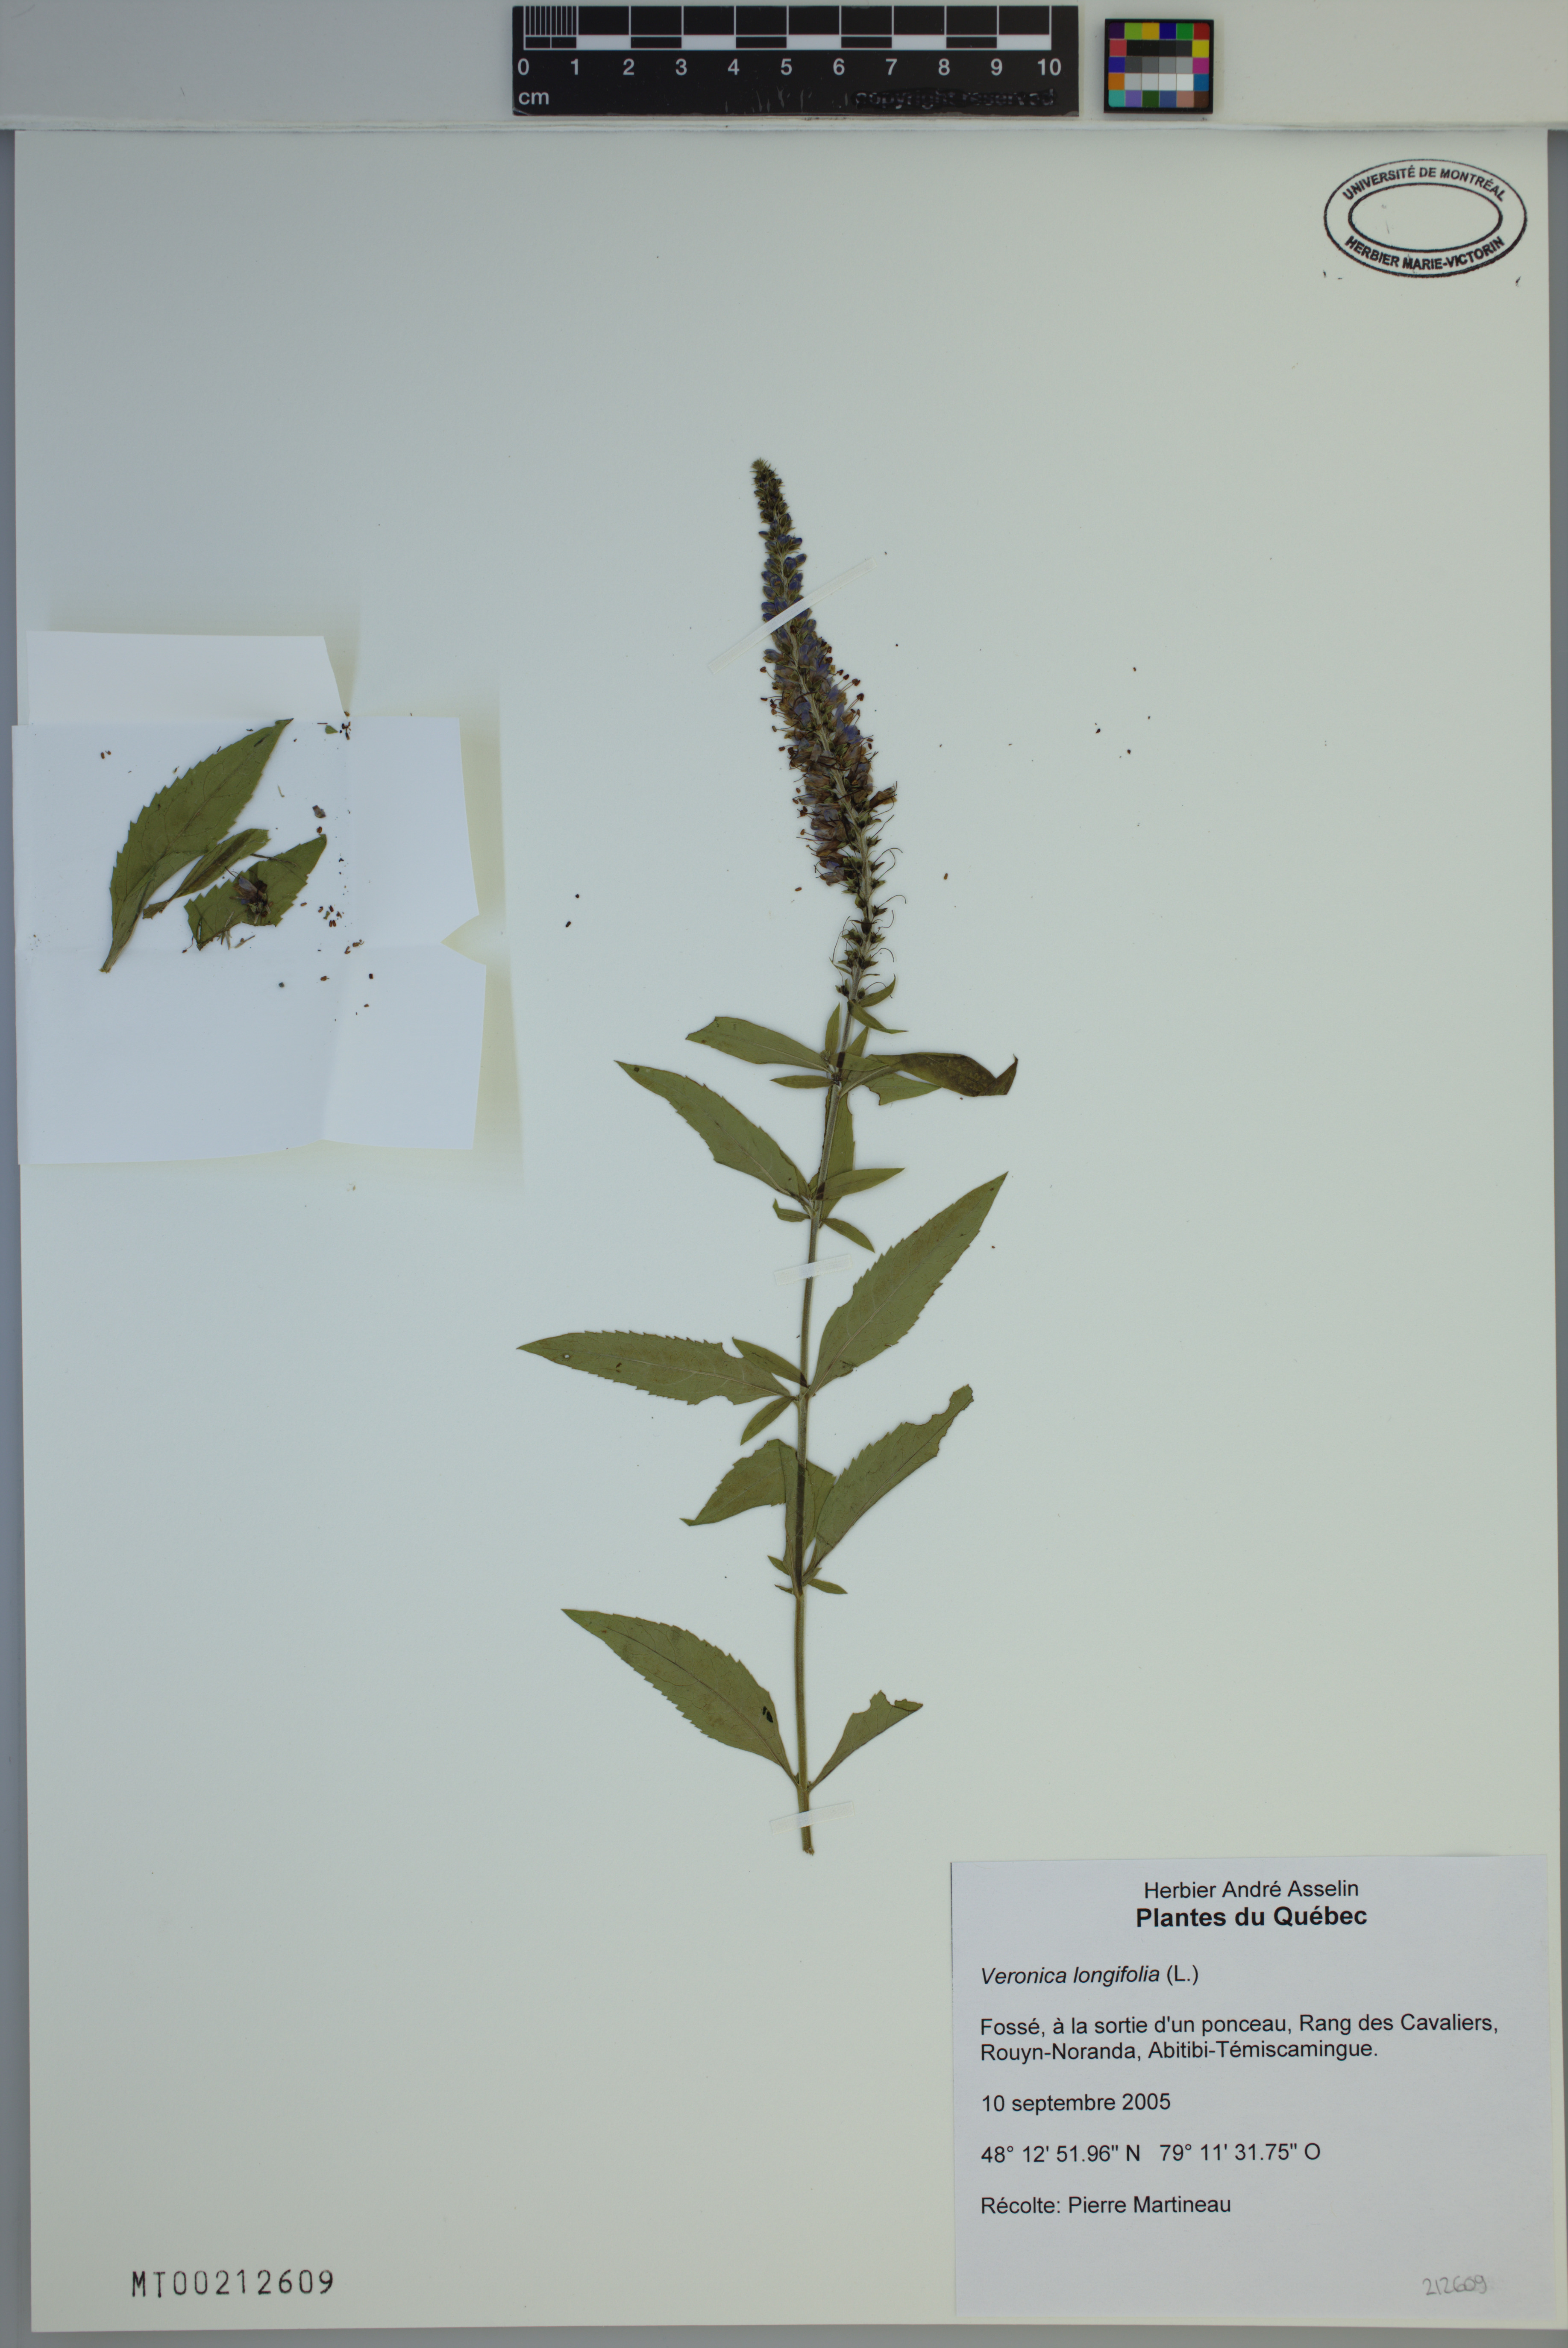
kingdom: Plantae
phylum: Tracheophyta
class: Magnoliopsida
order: Lamiales
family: Plantaginaceae
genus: Veronica
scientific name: Veronica longifolia
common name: Garden speedwell
